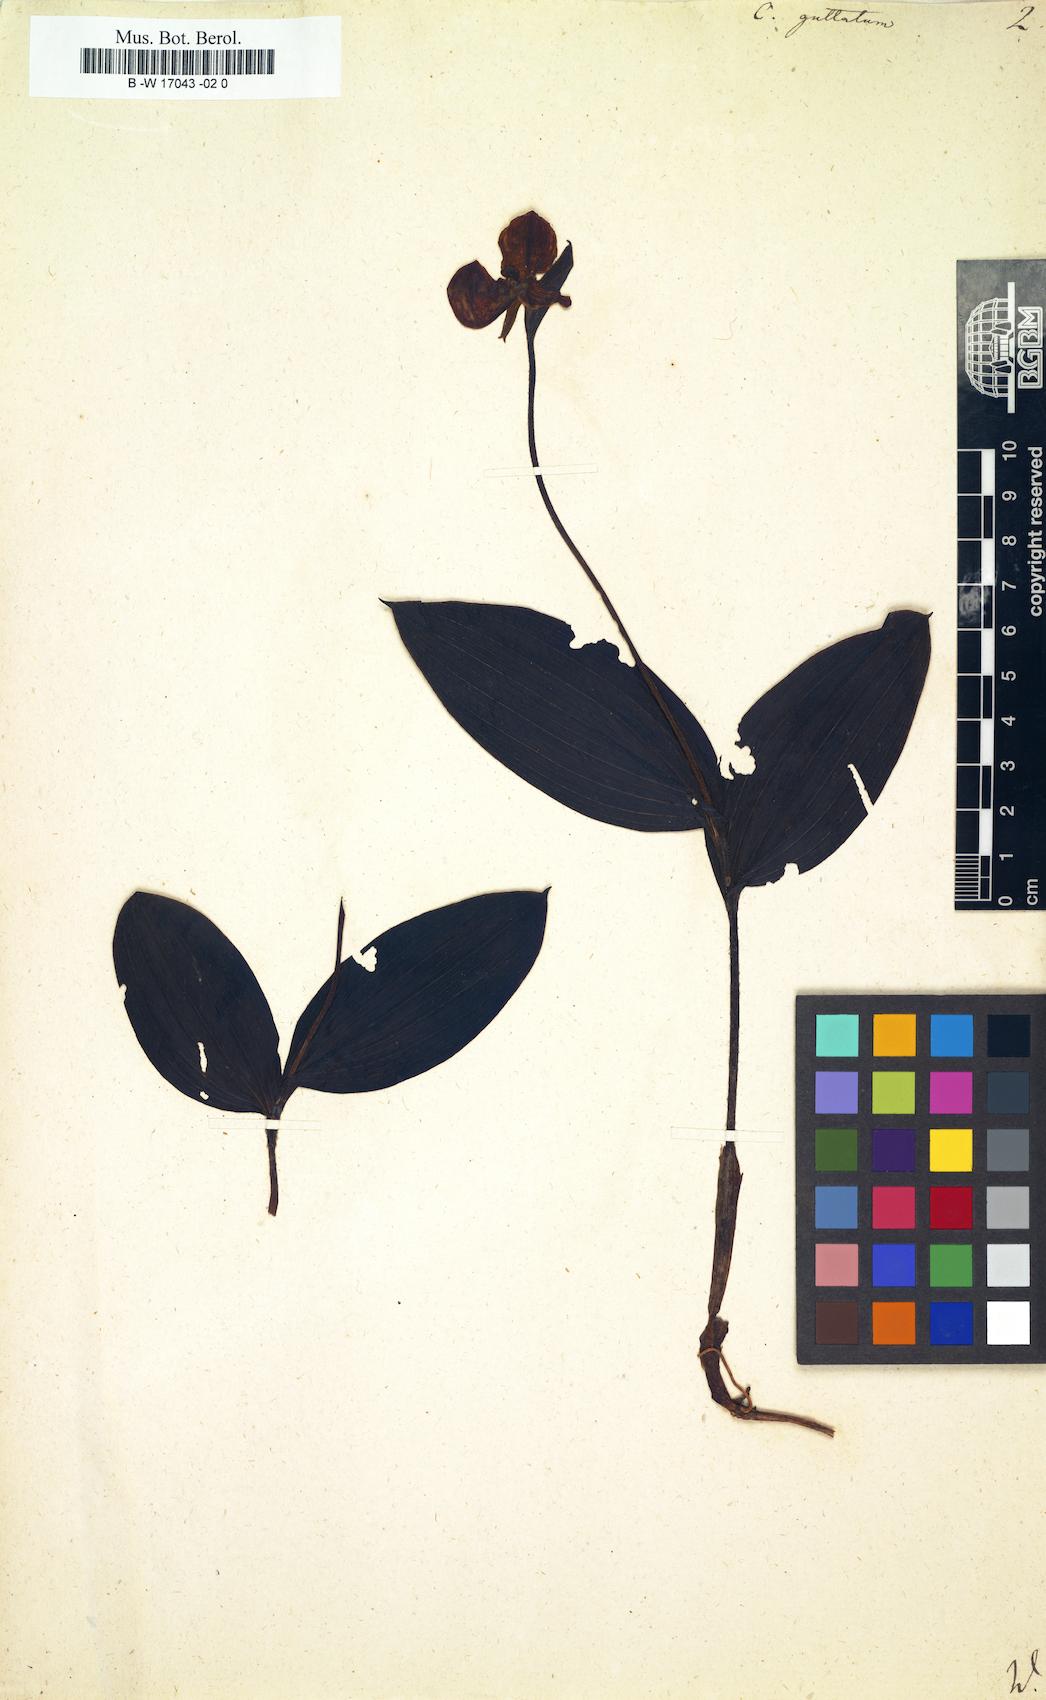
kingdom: Plantae
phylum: Tracheophyta
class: Liliopsida
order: Asparagales
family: Orchidaceae
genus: Cypripedium
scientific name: Cypripedium guttatum
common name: Pink lady slipper
